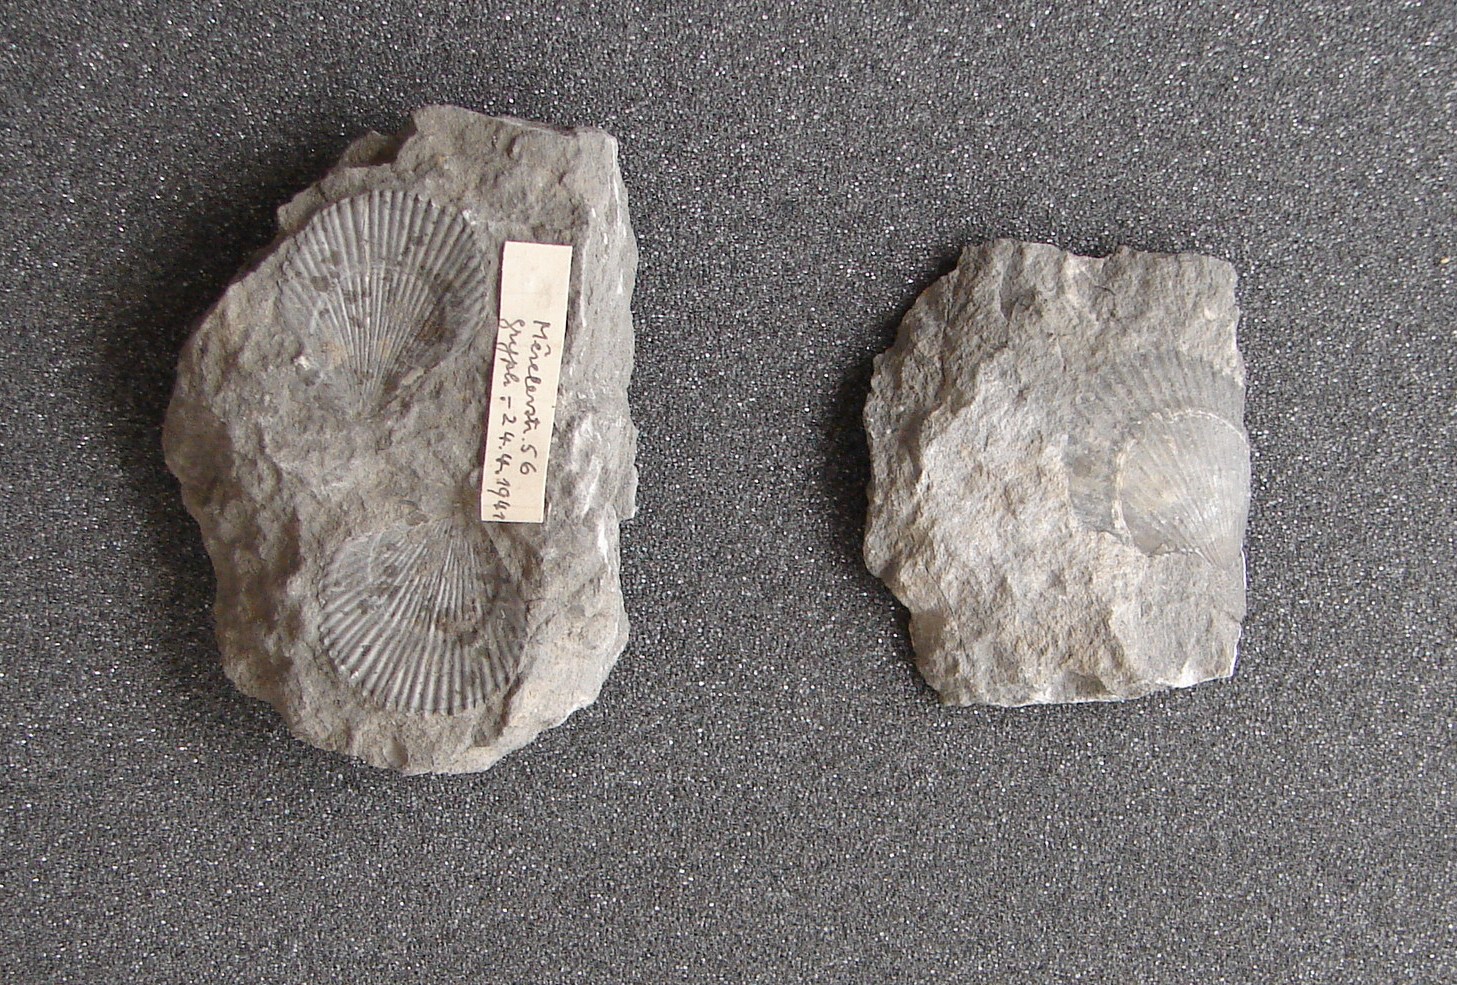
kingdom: Animalia
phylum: Mollusca
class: Bivalvia
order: Pectinida
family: Pectinidae
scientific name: Pectinidae
